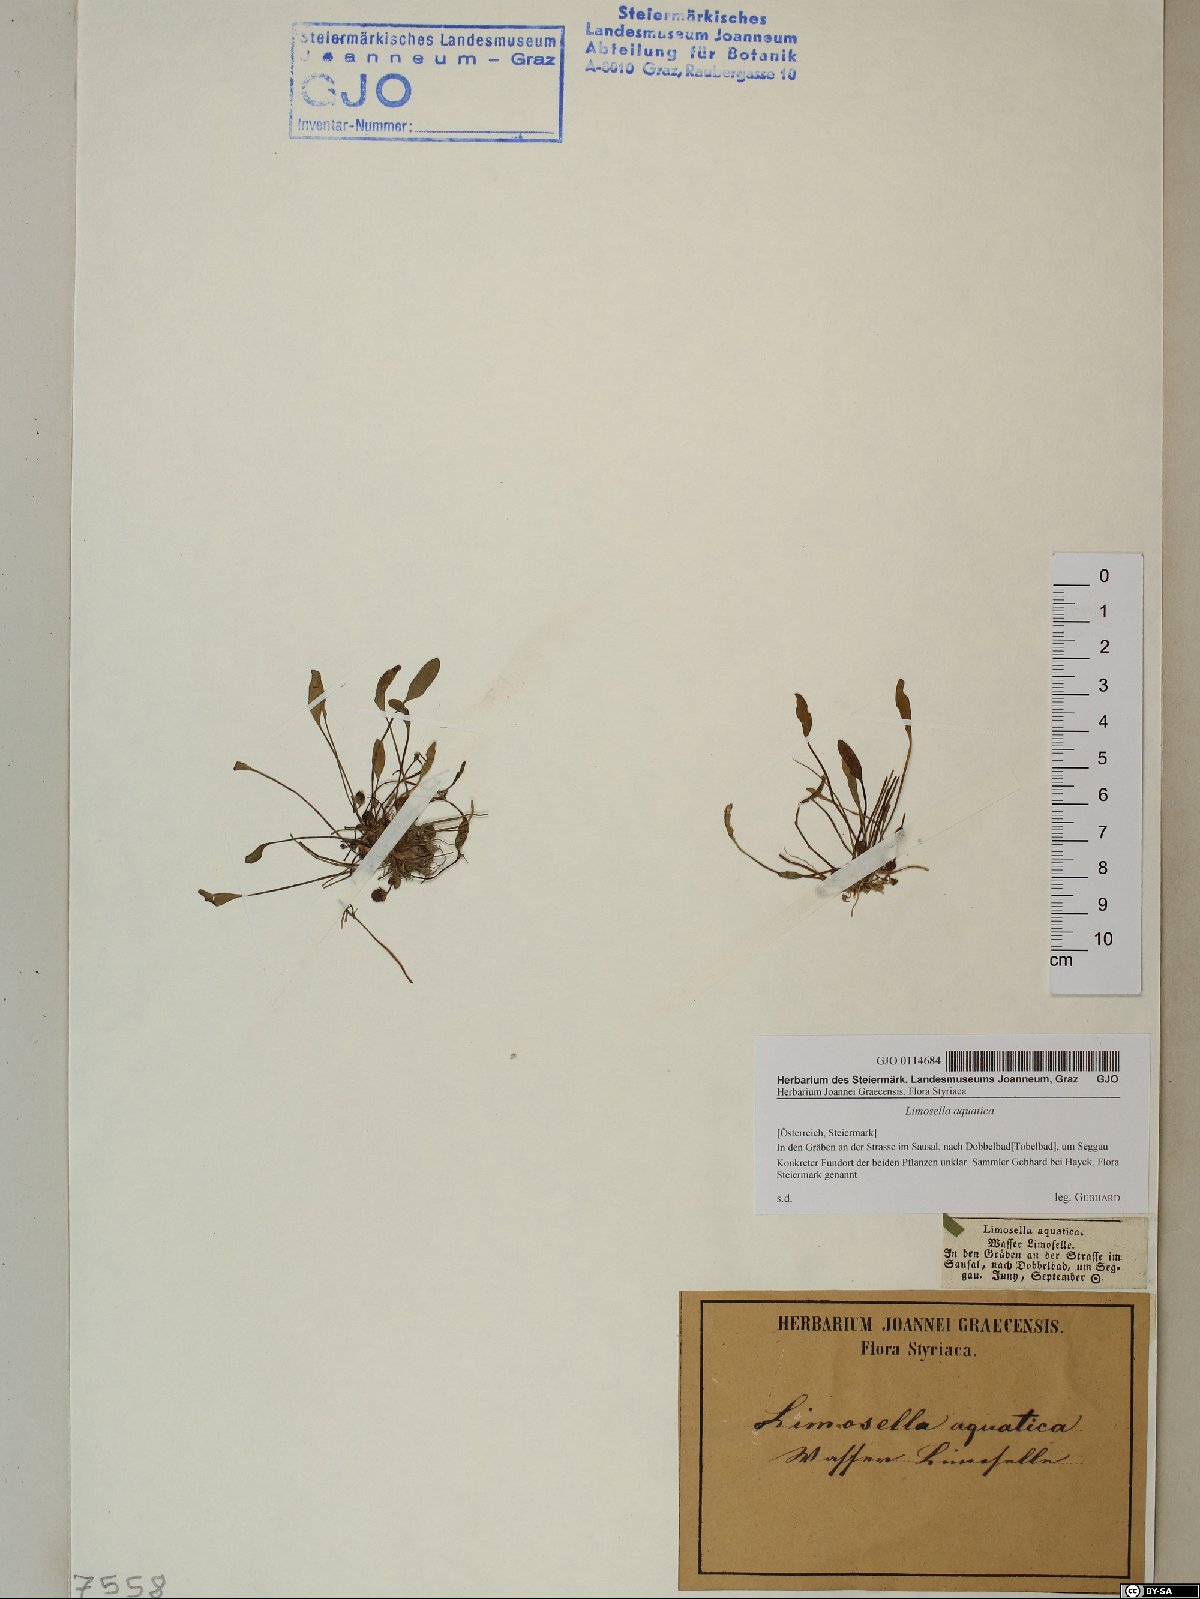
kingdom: Plantae
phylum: Tracheophyta
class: Magnoliopsida
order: Lamiales
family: Scrophulariaceae
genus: Limosella
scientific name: Limosella aquatica
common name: Mudwort
